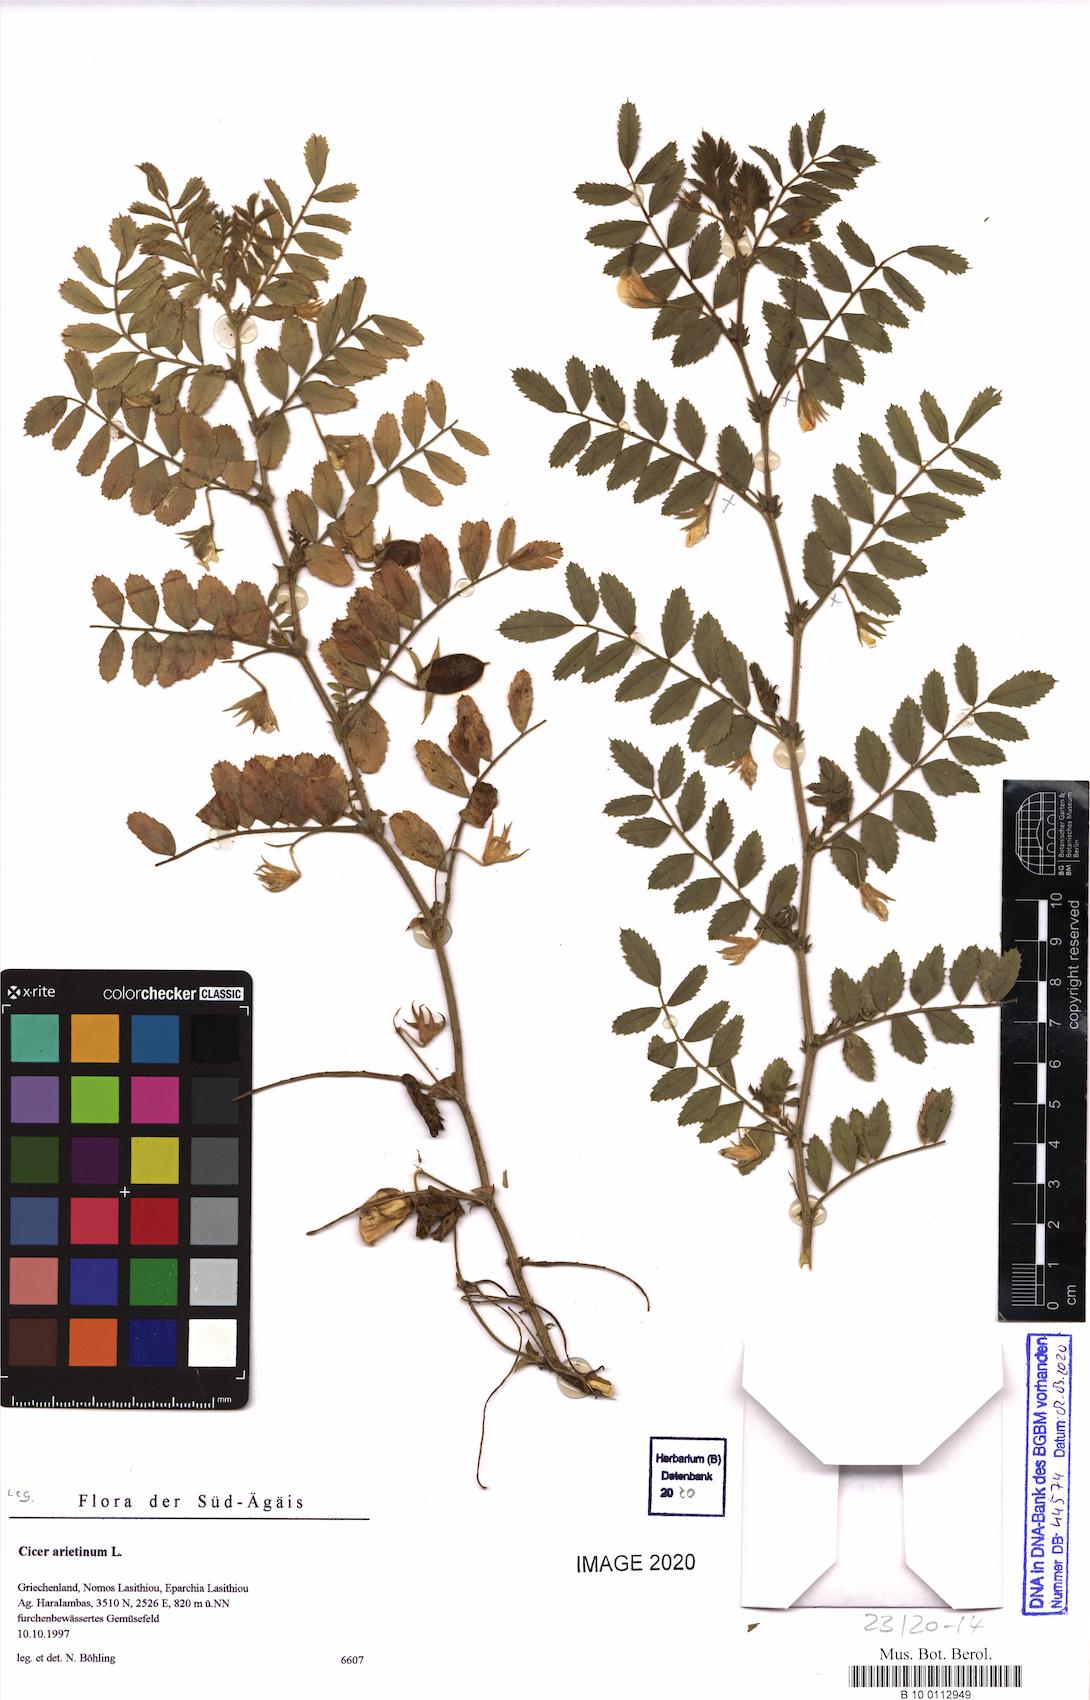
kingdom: Plantae
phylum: Tracheophyta
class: Magnoliopsida
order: Fabales
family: Fabaceae
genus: Cicer
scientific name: Cicer arietinum
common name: Chick pea
